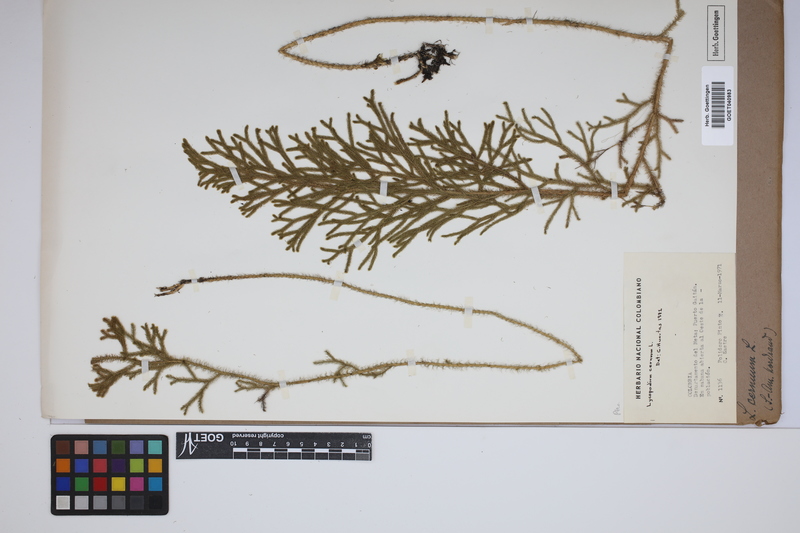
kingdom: Plantae
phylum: Tracheophyta
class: Lycopodiopsida
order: Lycopodiales
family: Lycopodiaceae
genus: Palhinhaea
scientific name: Palhinhaea cernua
